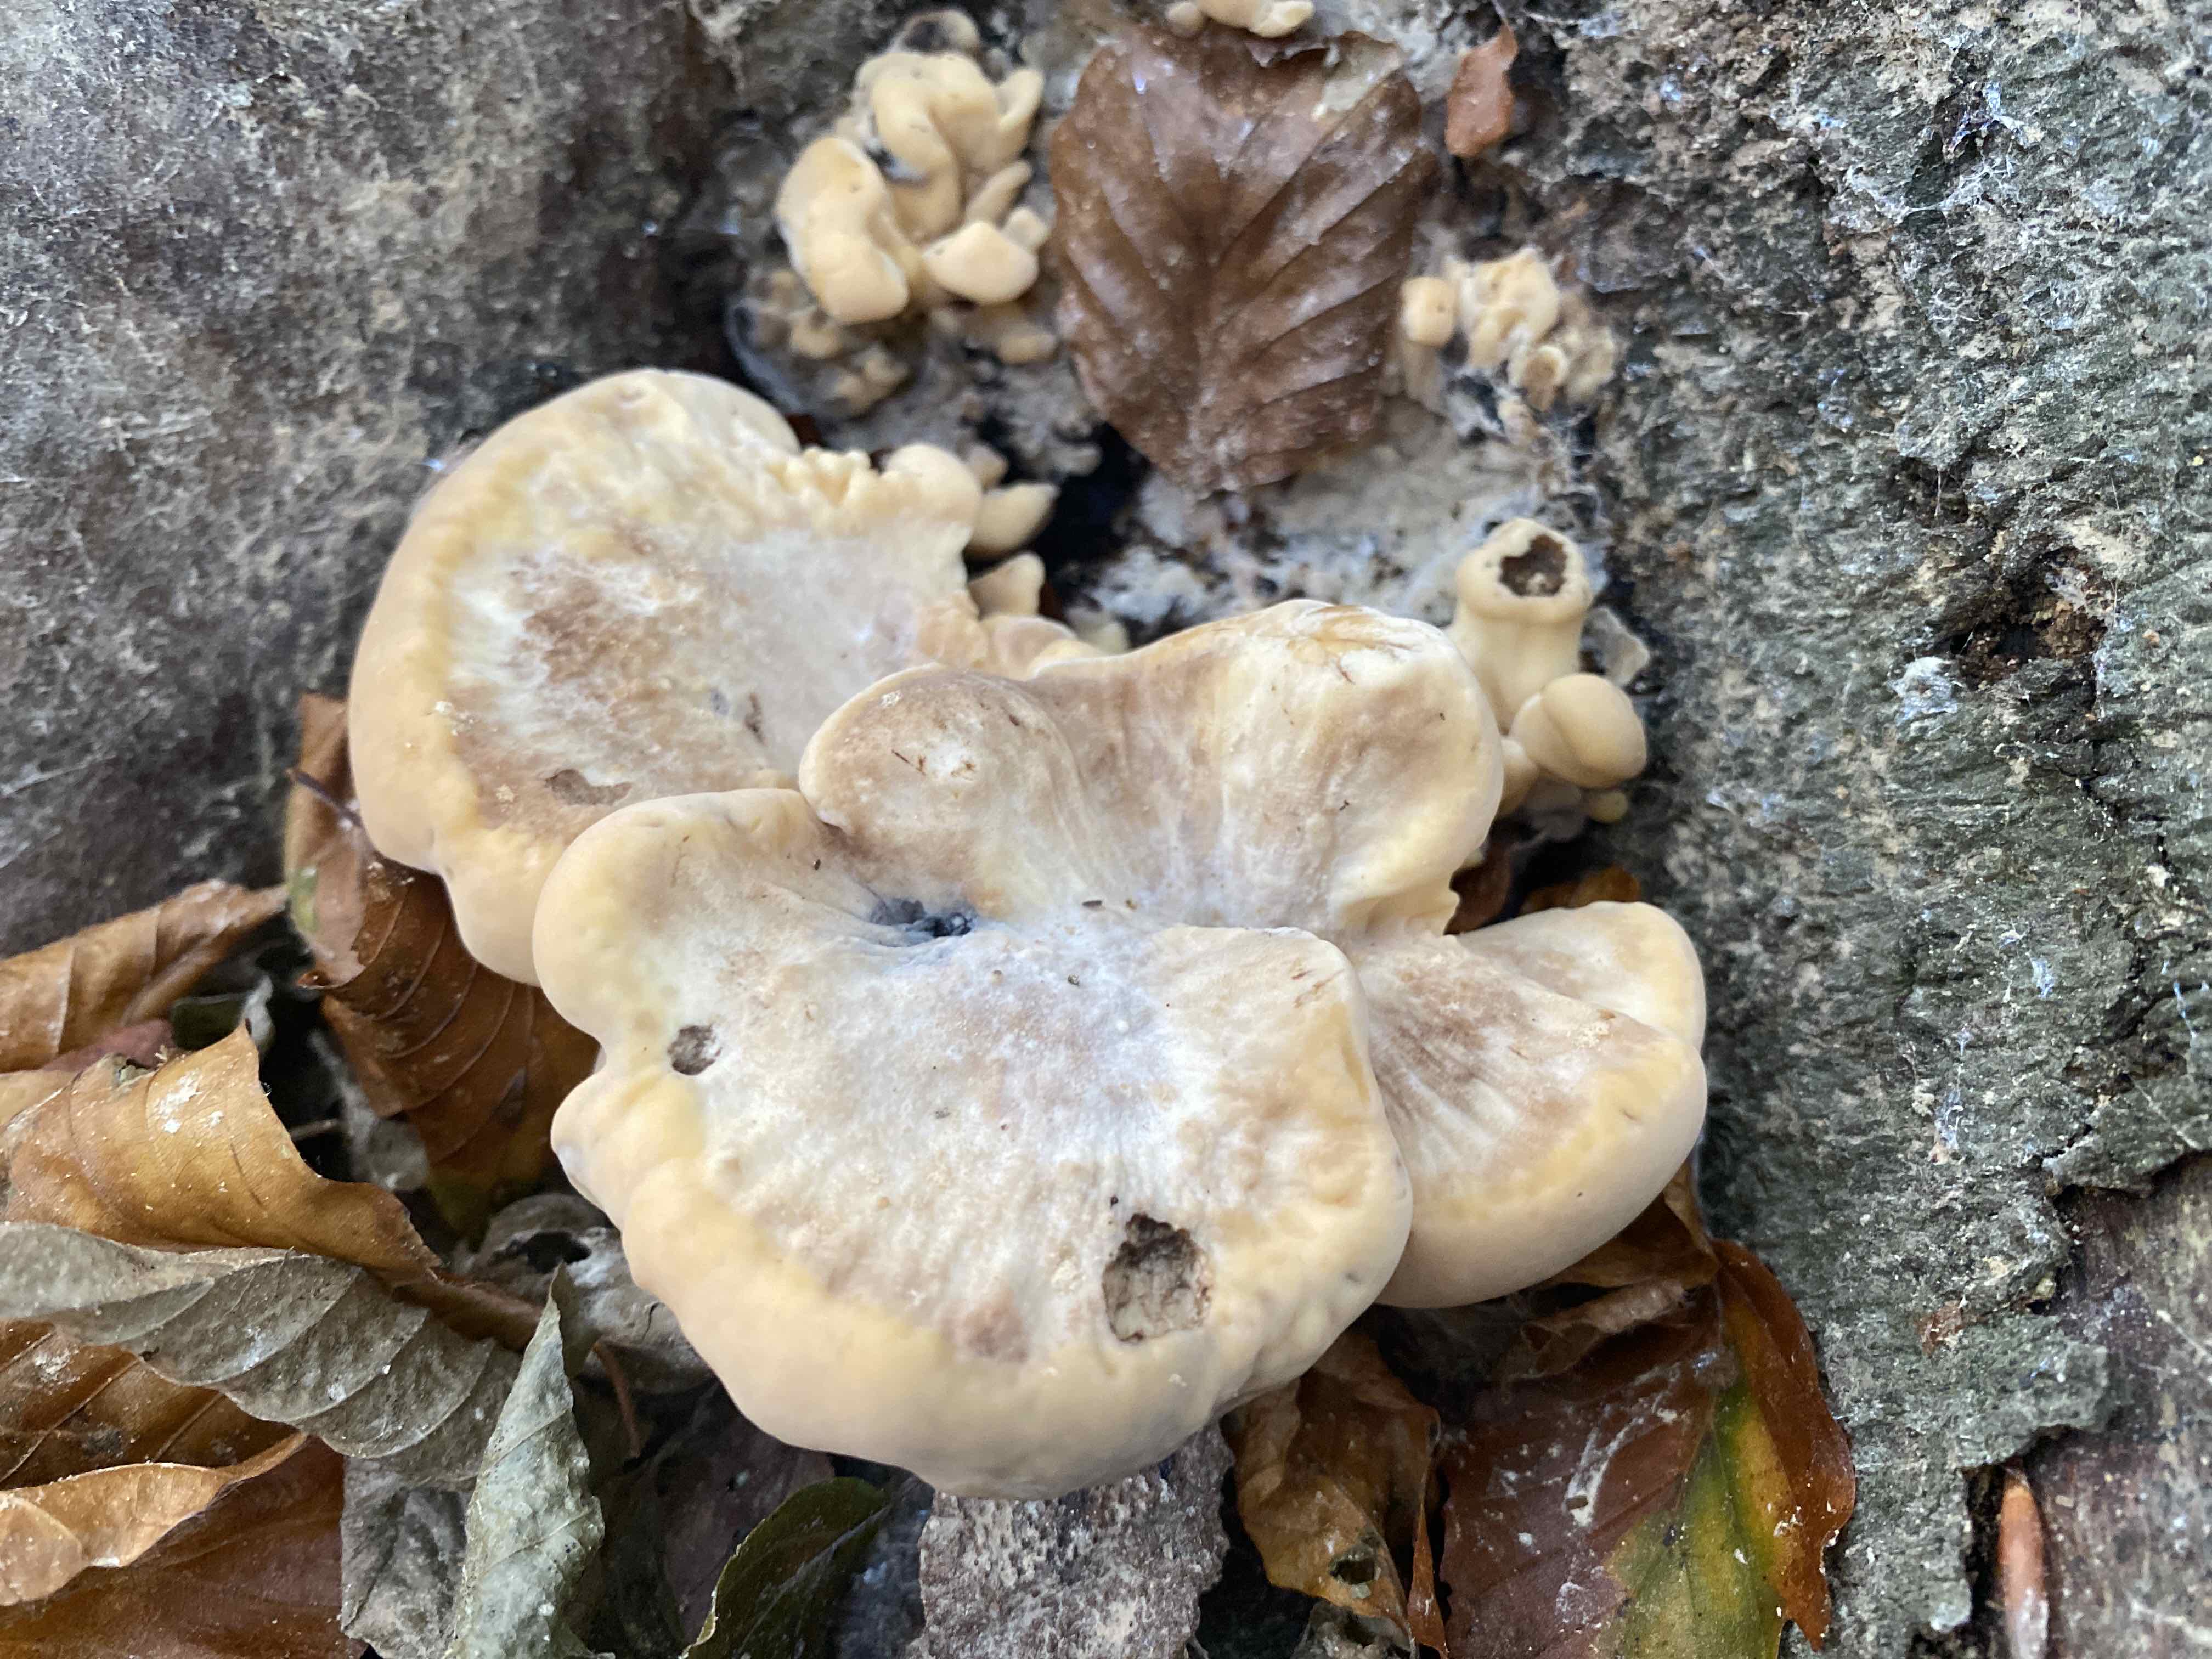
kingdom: Fungi
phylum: Basidiomycota
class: Agaricomycetes
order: Polyporales
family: Meripilaceae
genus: Meripilus
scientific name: Meripilus giganteus
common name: kæmpeporesvamp
